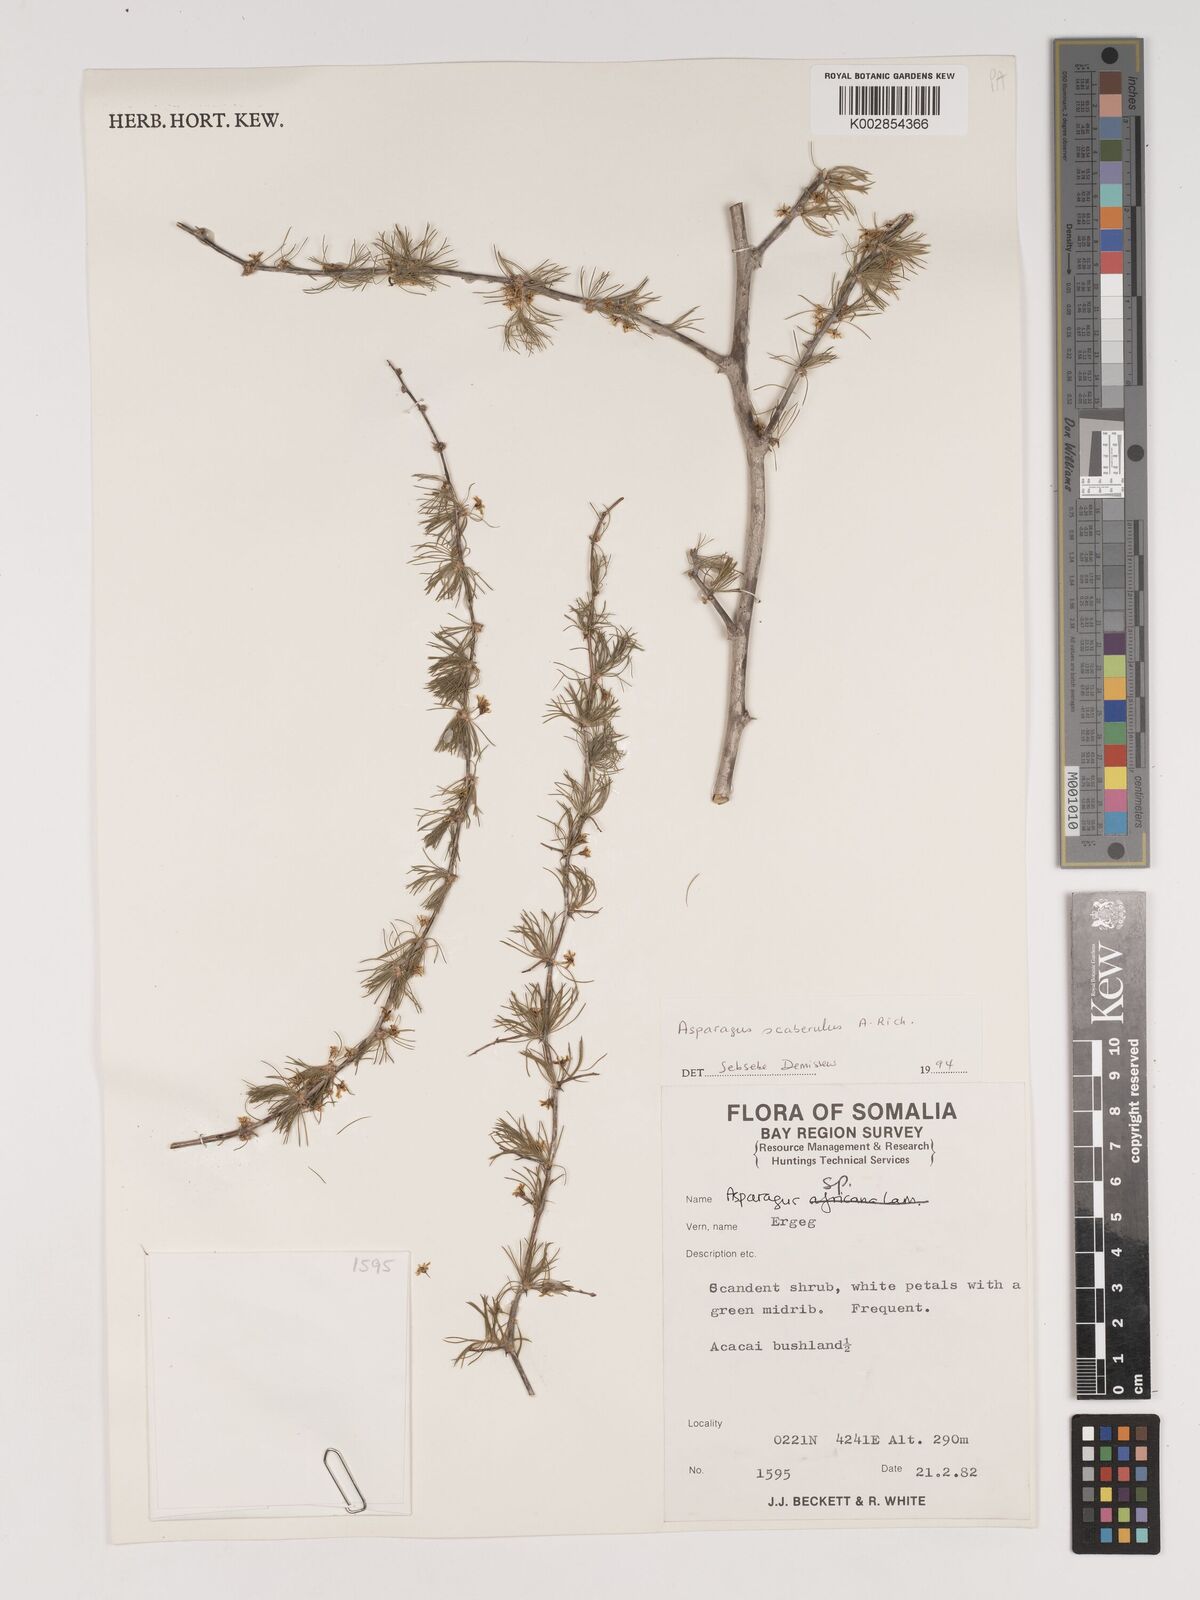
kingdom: Plantae
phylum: Tracheophyta
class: Liliopsida
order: Asparagales
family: Asparagaceae
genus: Asparagus
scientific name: Asparagus scaberulus
